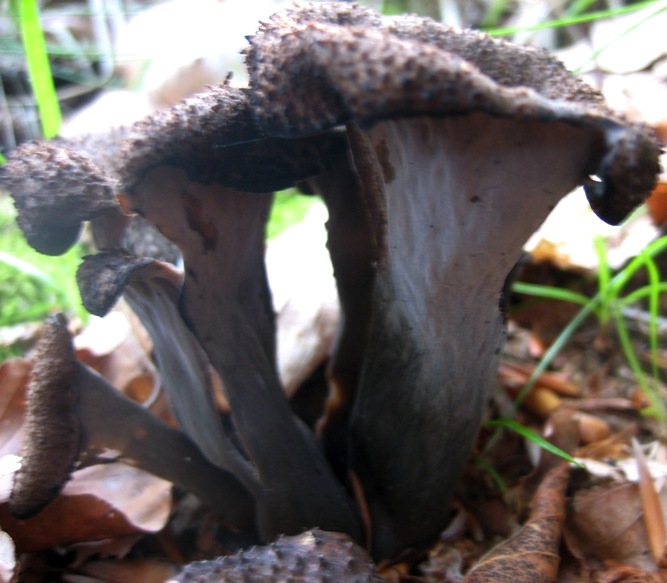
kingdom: Fungi
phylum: Basidiomycota
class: Agaricomycetes
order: Cantharellales
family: Hydnaceae
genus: Craterellus
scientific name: Craterellus cornucopioides
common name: trompetsvamp
